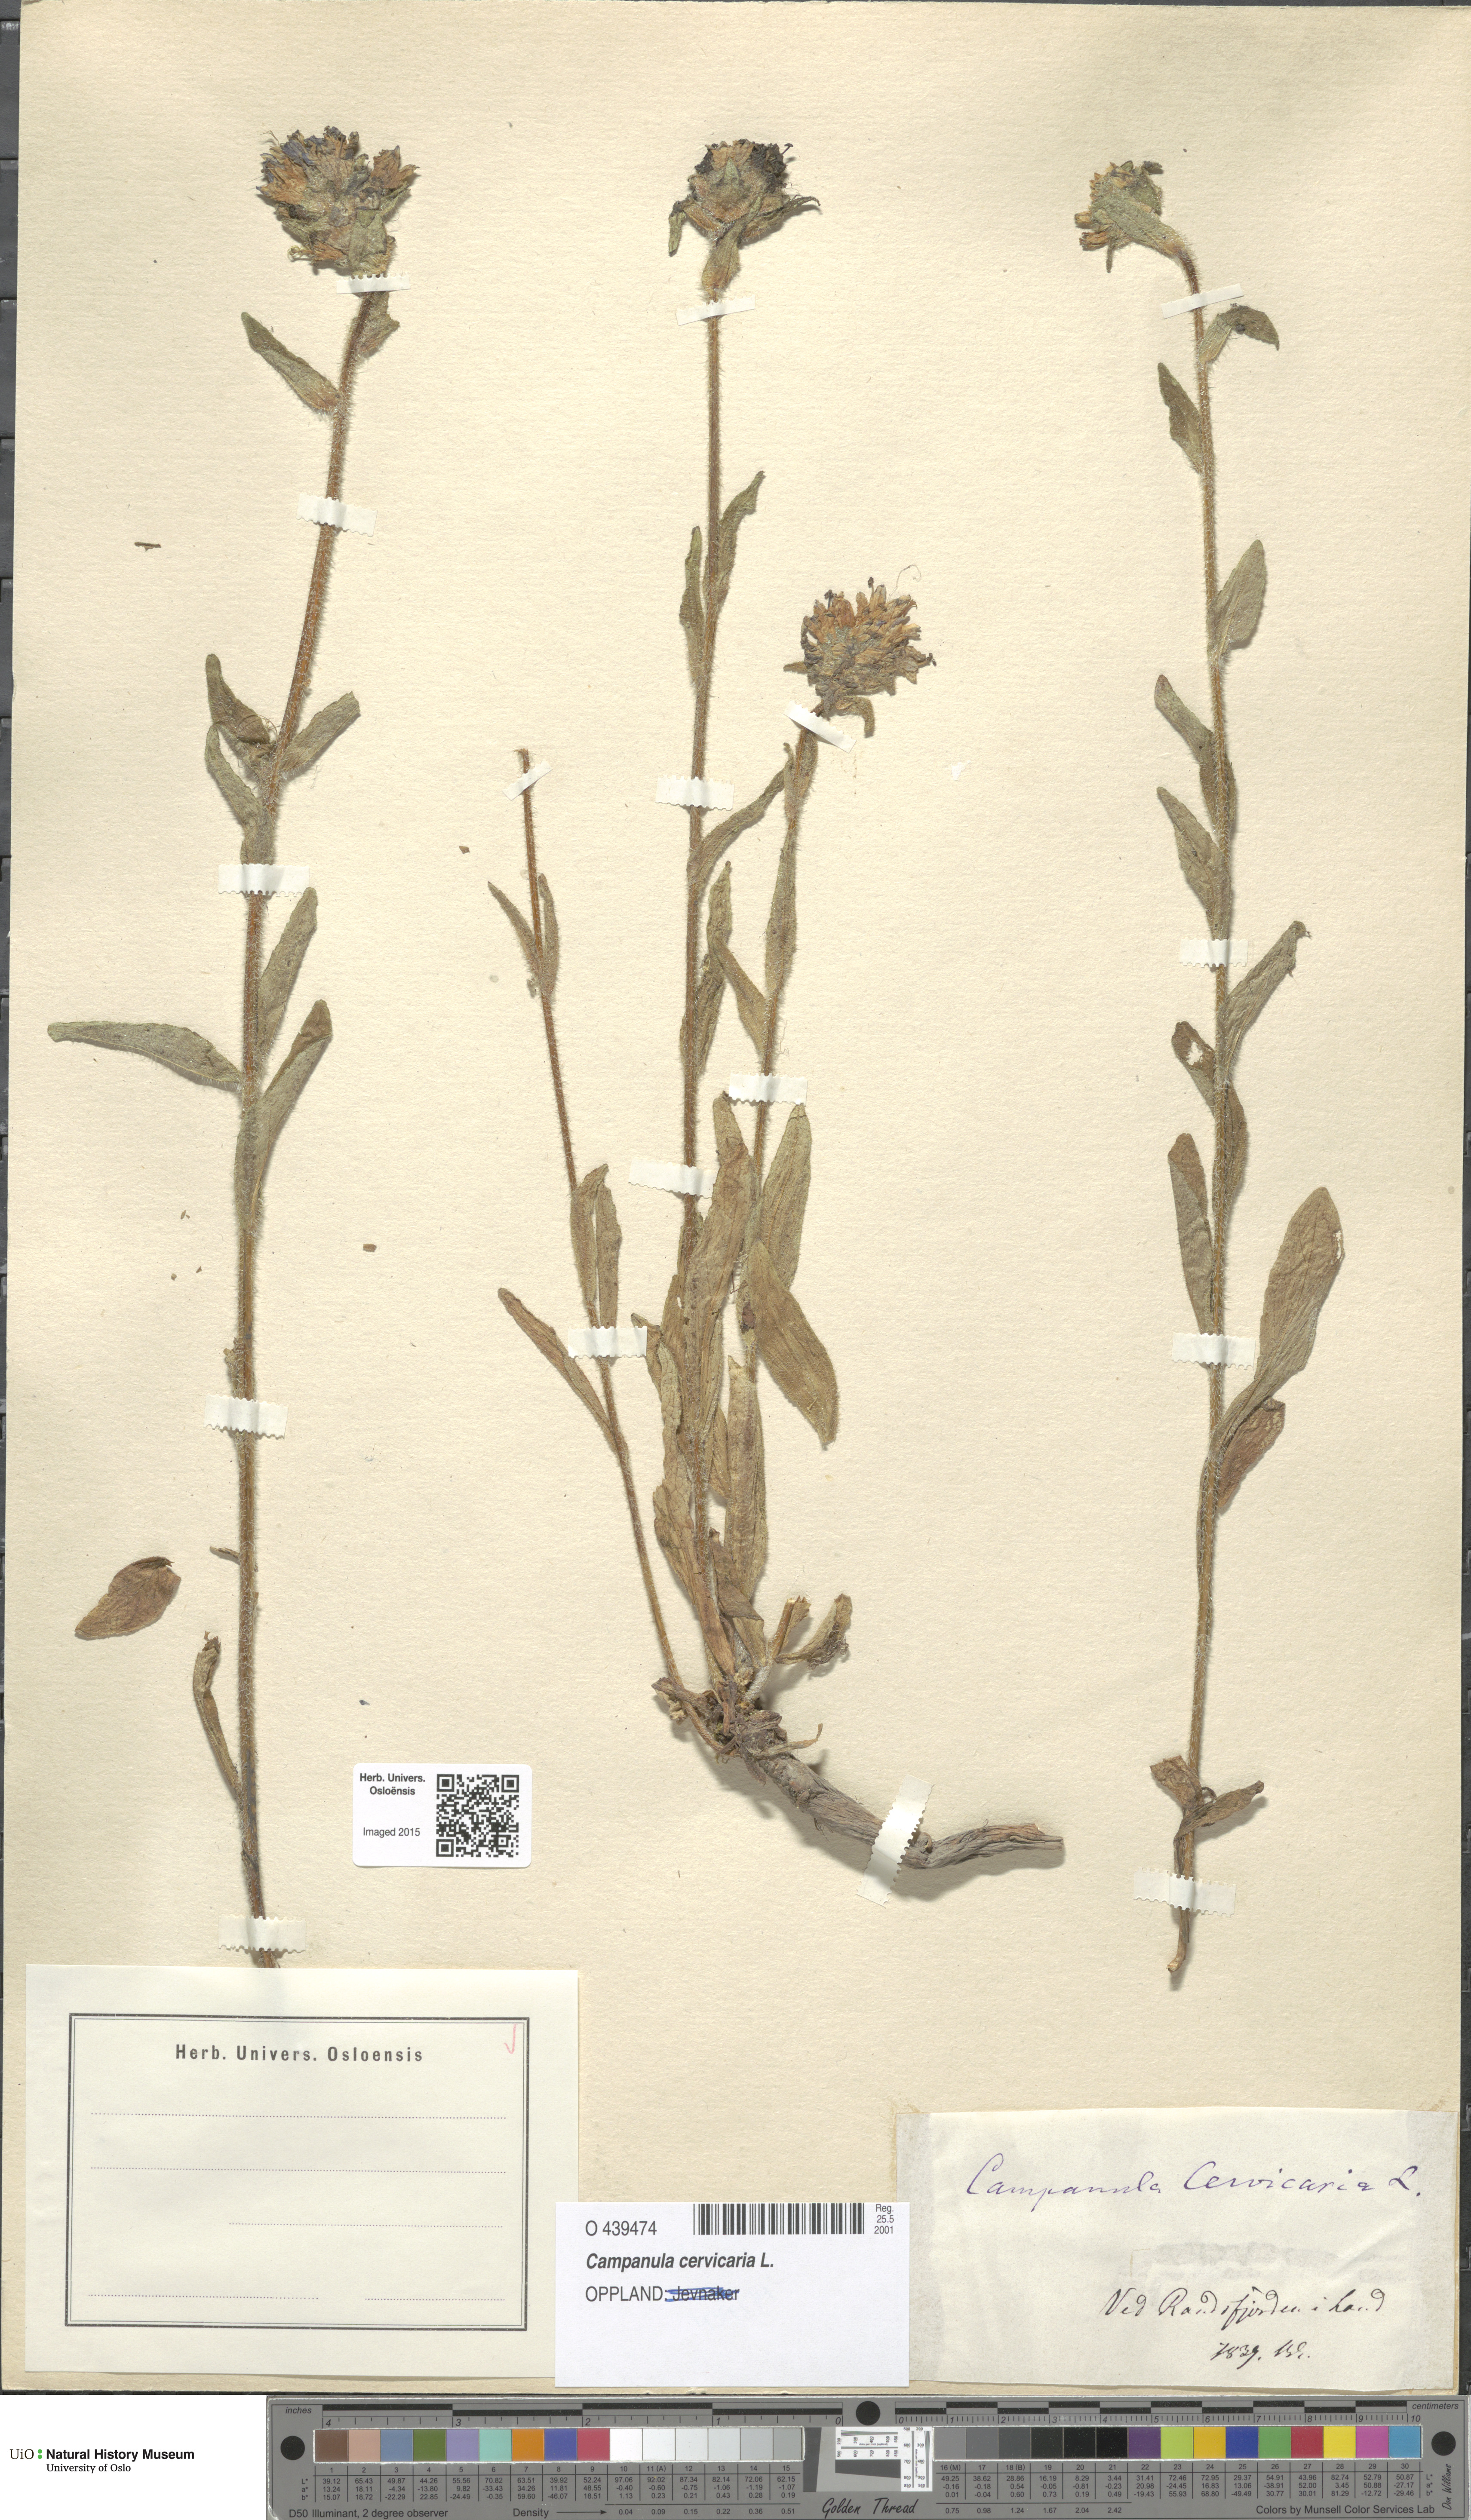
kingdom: Plantae
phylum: Tracheophyta
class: Magnoliopsida
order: Asterales
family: Campanulaceae
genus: Campanula
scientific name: Campanula cervicaria
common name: Bristly bellflower
